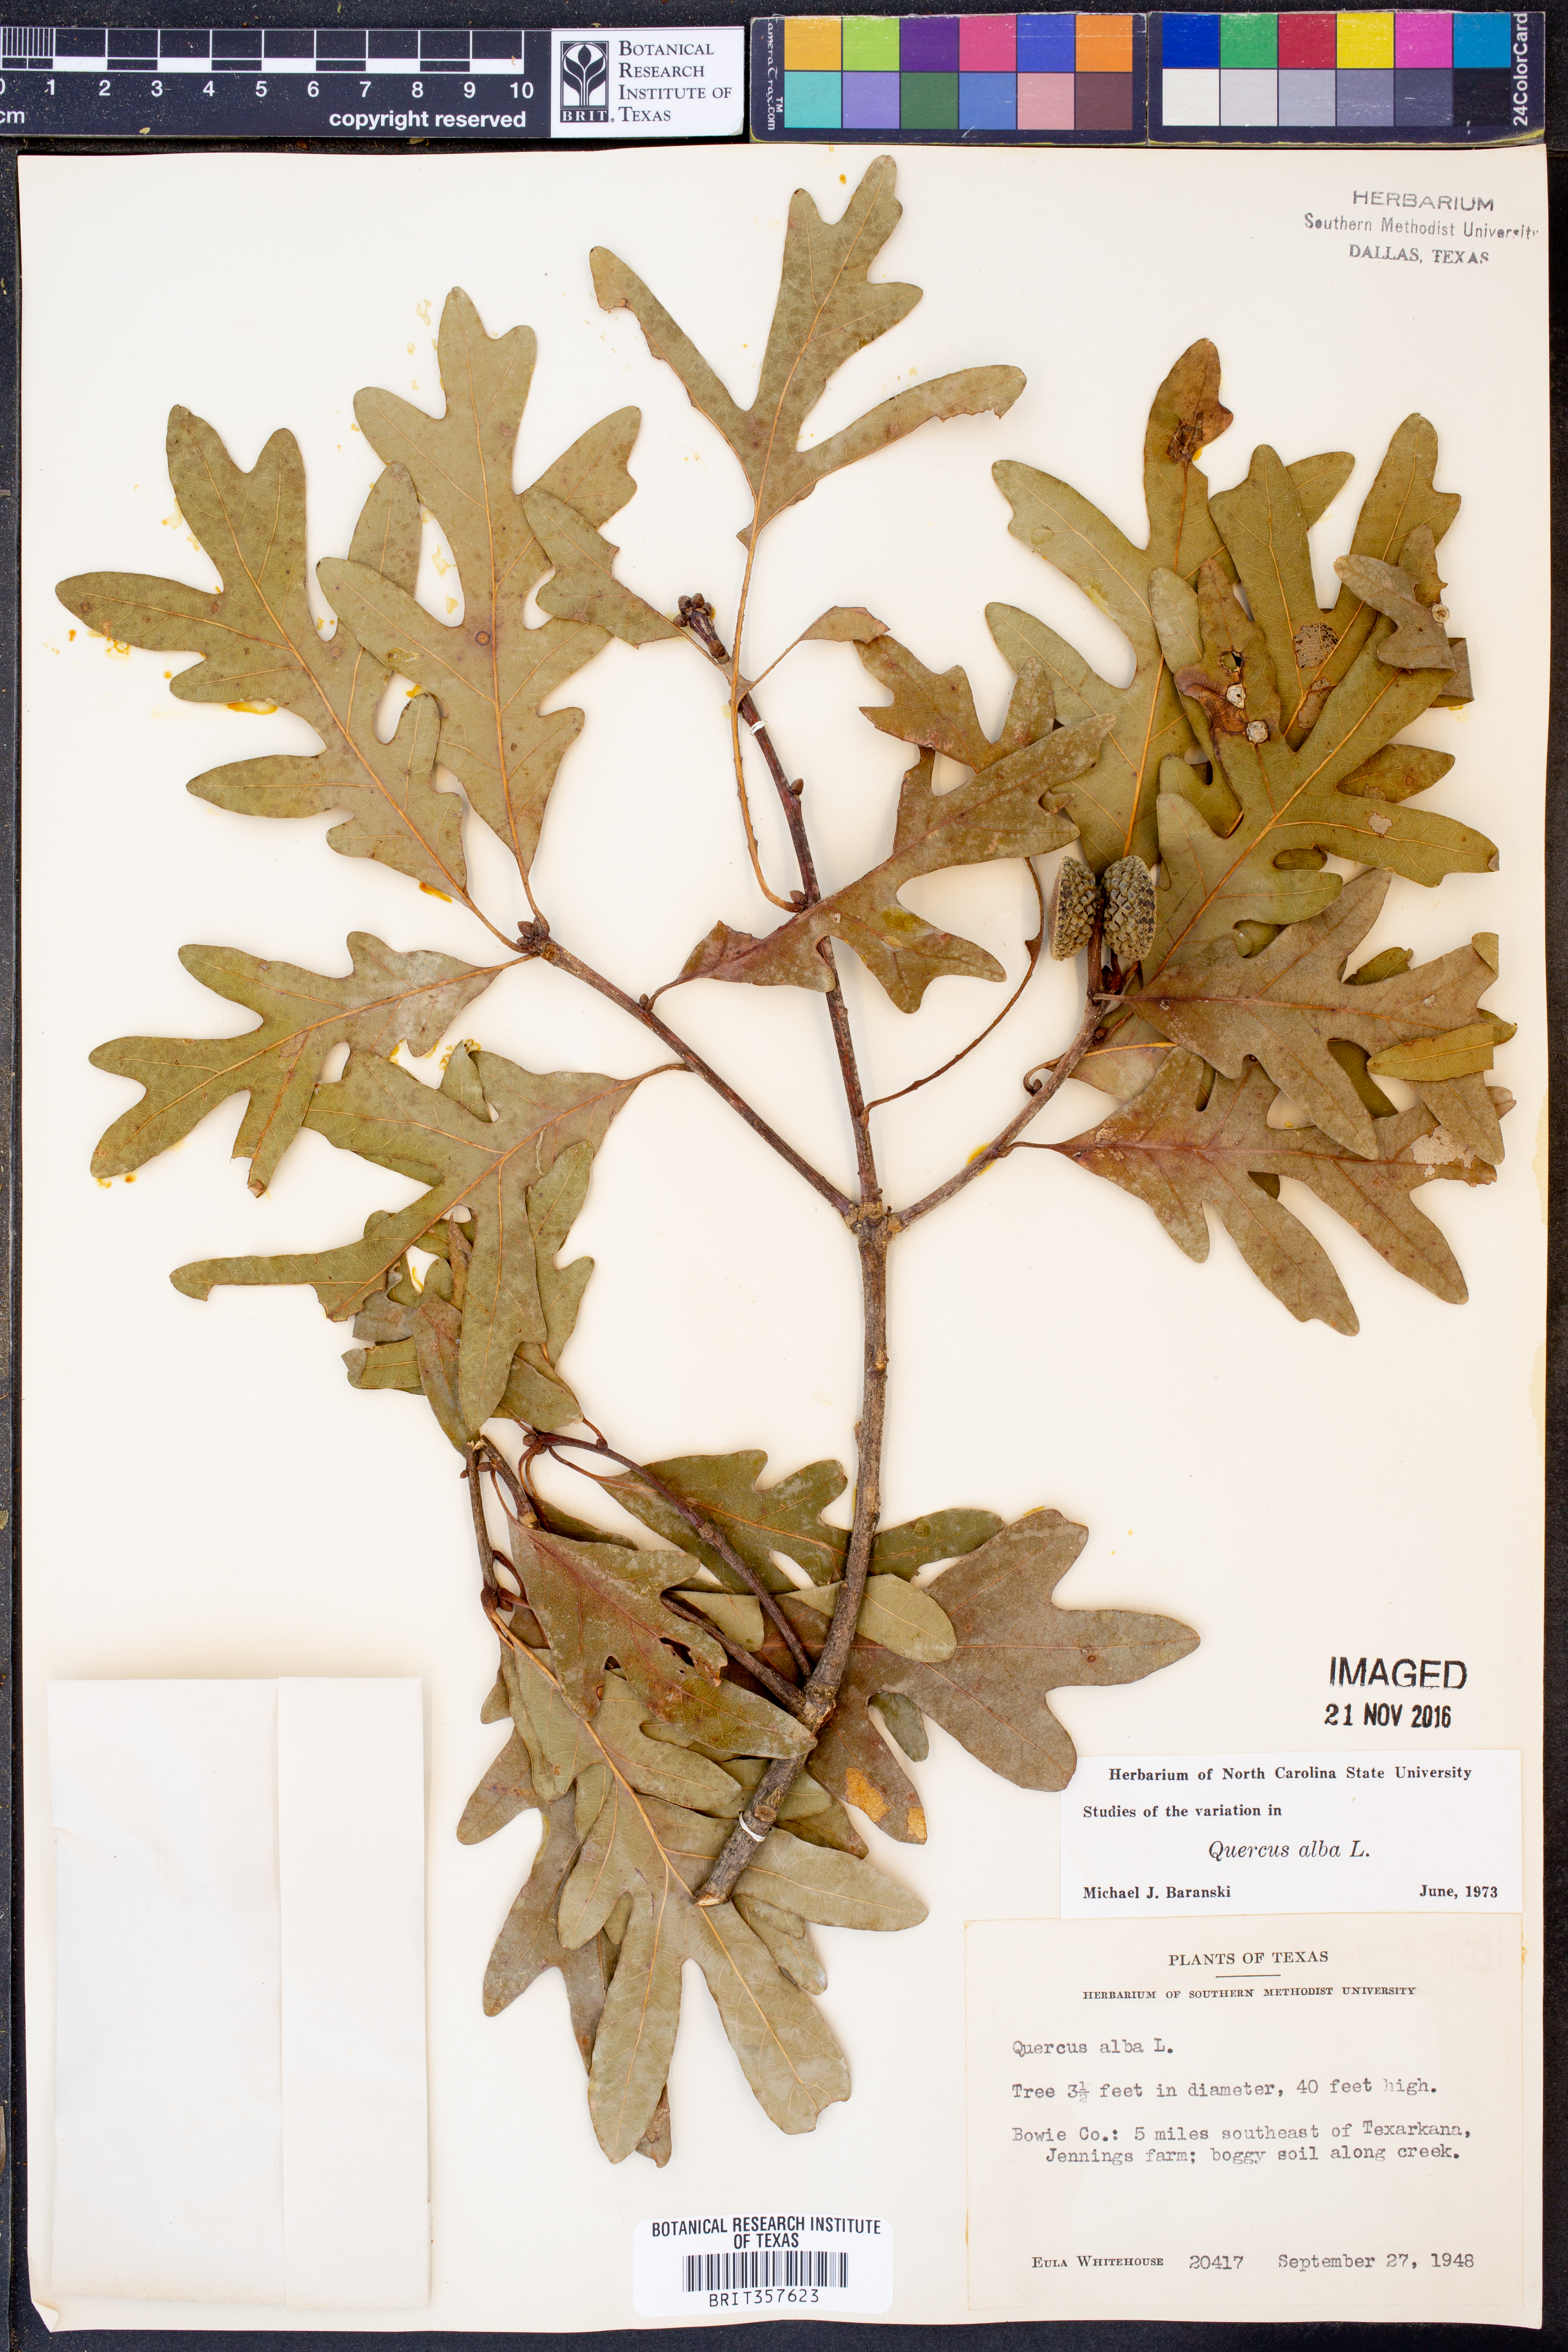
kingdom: Plantae
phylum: Tracheophyta
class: Magnoliopsida
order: Fagales
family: Fagaceae
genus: Quercus
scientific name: Quercus alba
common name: White oak
